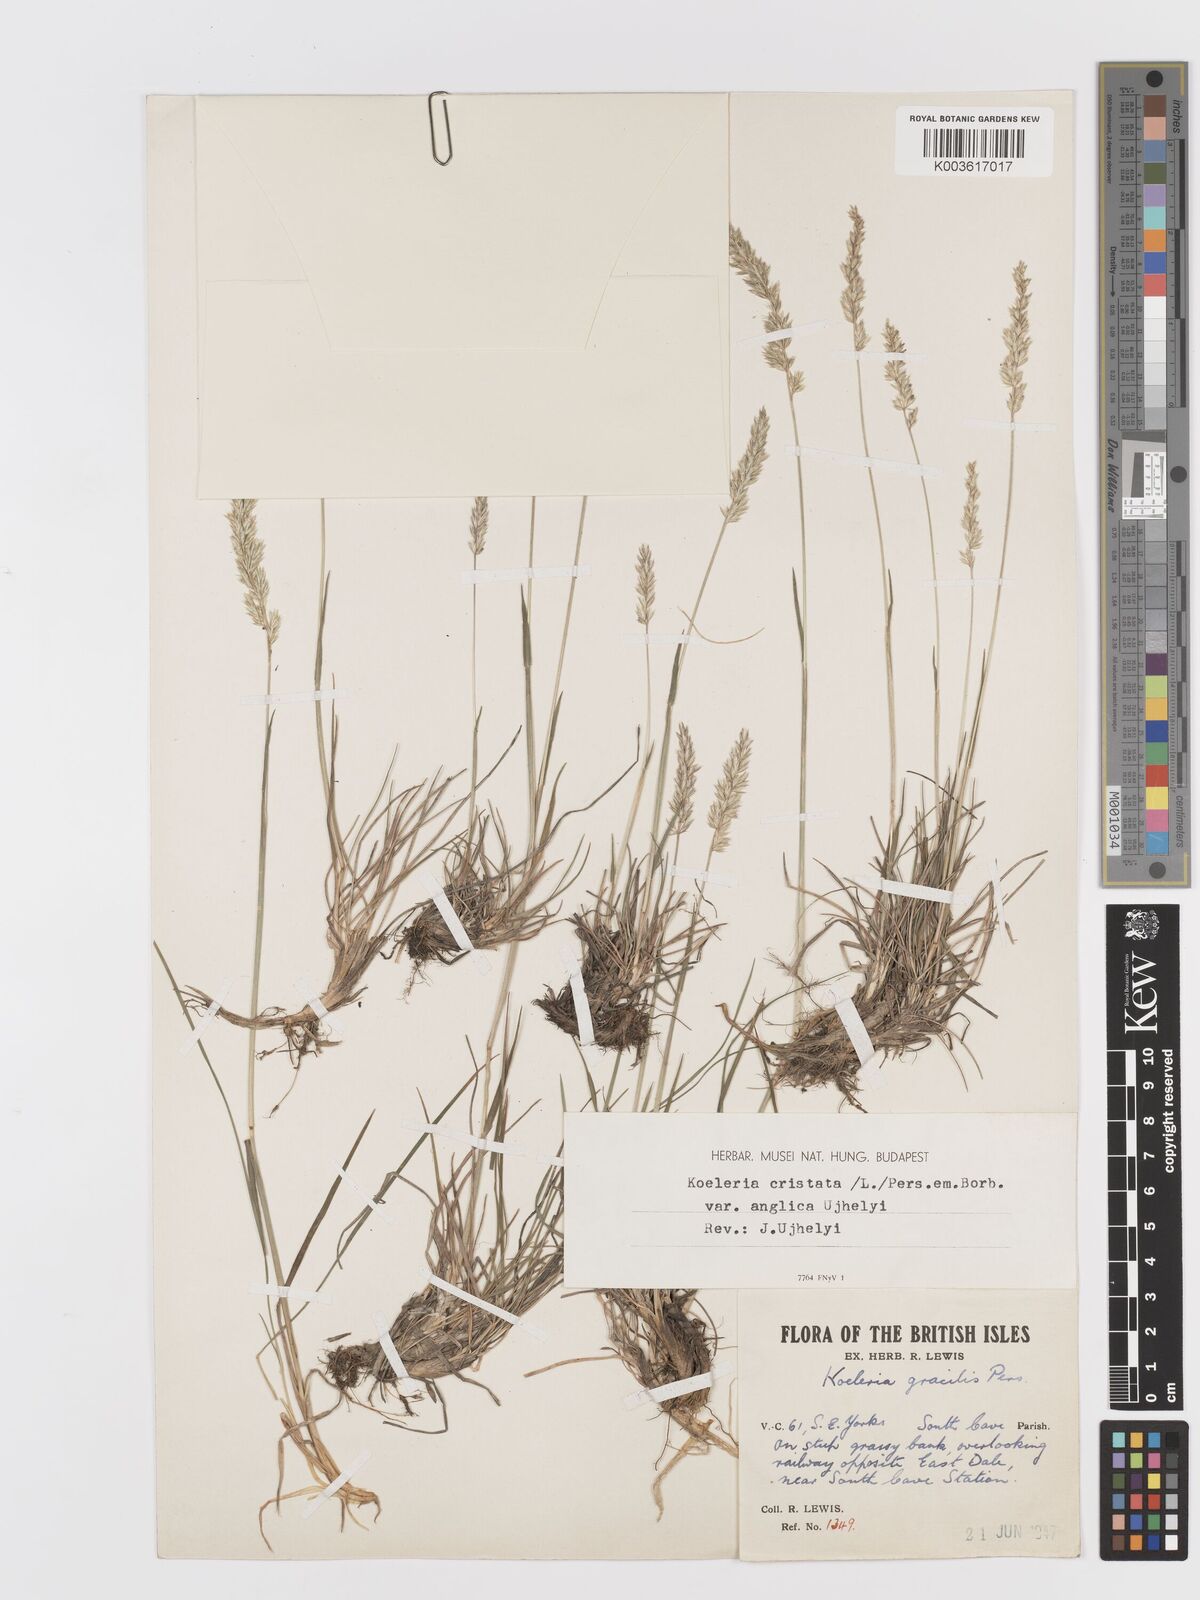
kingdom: Plantae
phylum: Tracheophyta
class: Liliopsida
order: Poales
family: Poaceae
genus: Koeleria
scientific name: Koeleria nitidula
